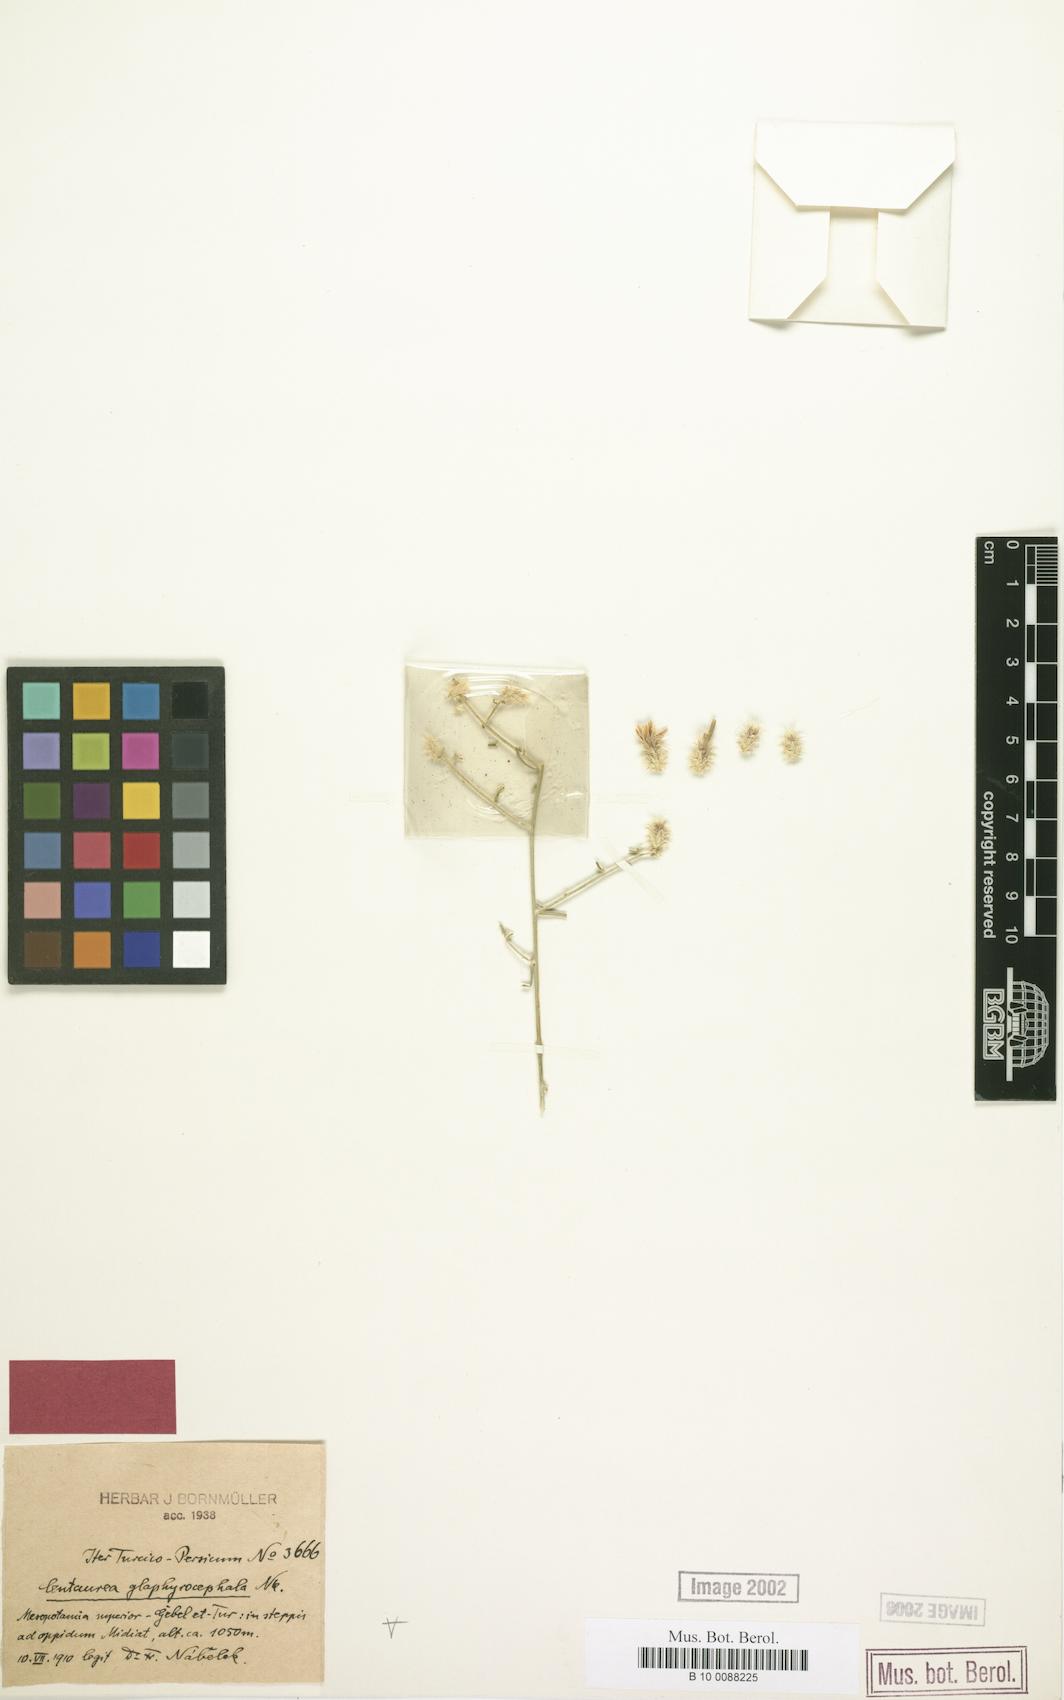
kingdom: Plantae
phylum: Tracheophyta
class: Magnoliopsida
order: Asterales
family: Asteraceae
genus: Centaurea
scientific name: Centaurea glaphyrocephala
